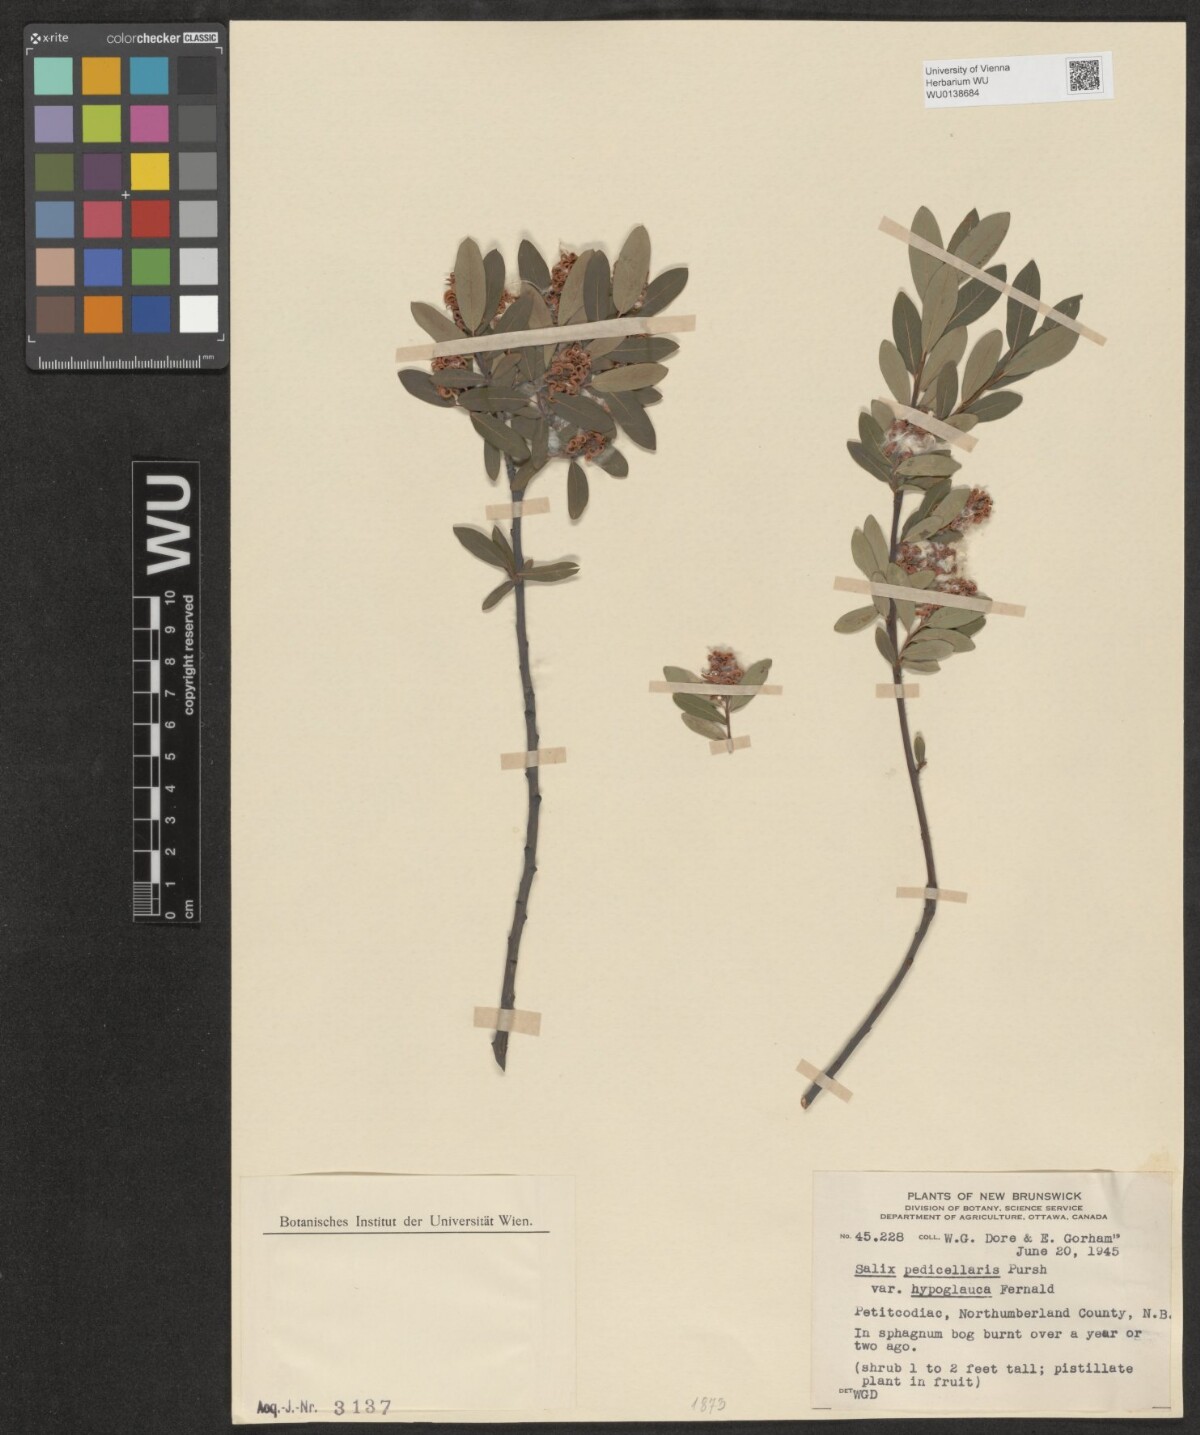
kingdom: Plantae
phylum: Tracheophyta
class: Magnoliopsida
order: Malpighiales
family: Salicaceae
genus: Salix
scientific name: Salix pedicellaris
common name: Bog willow
